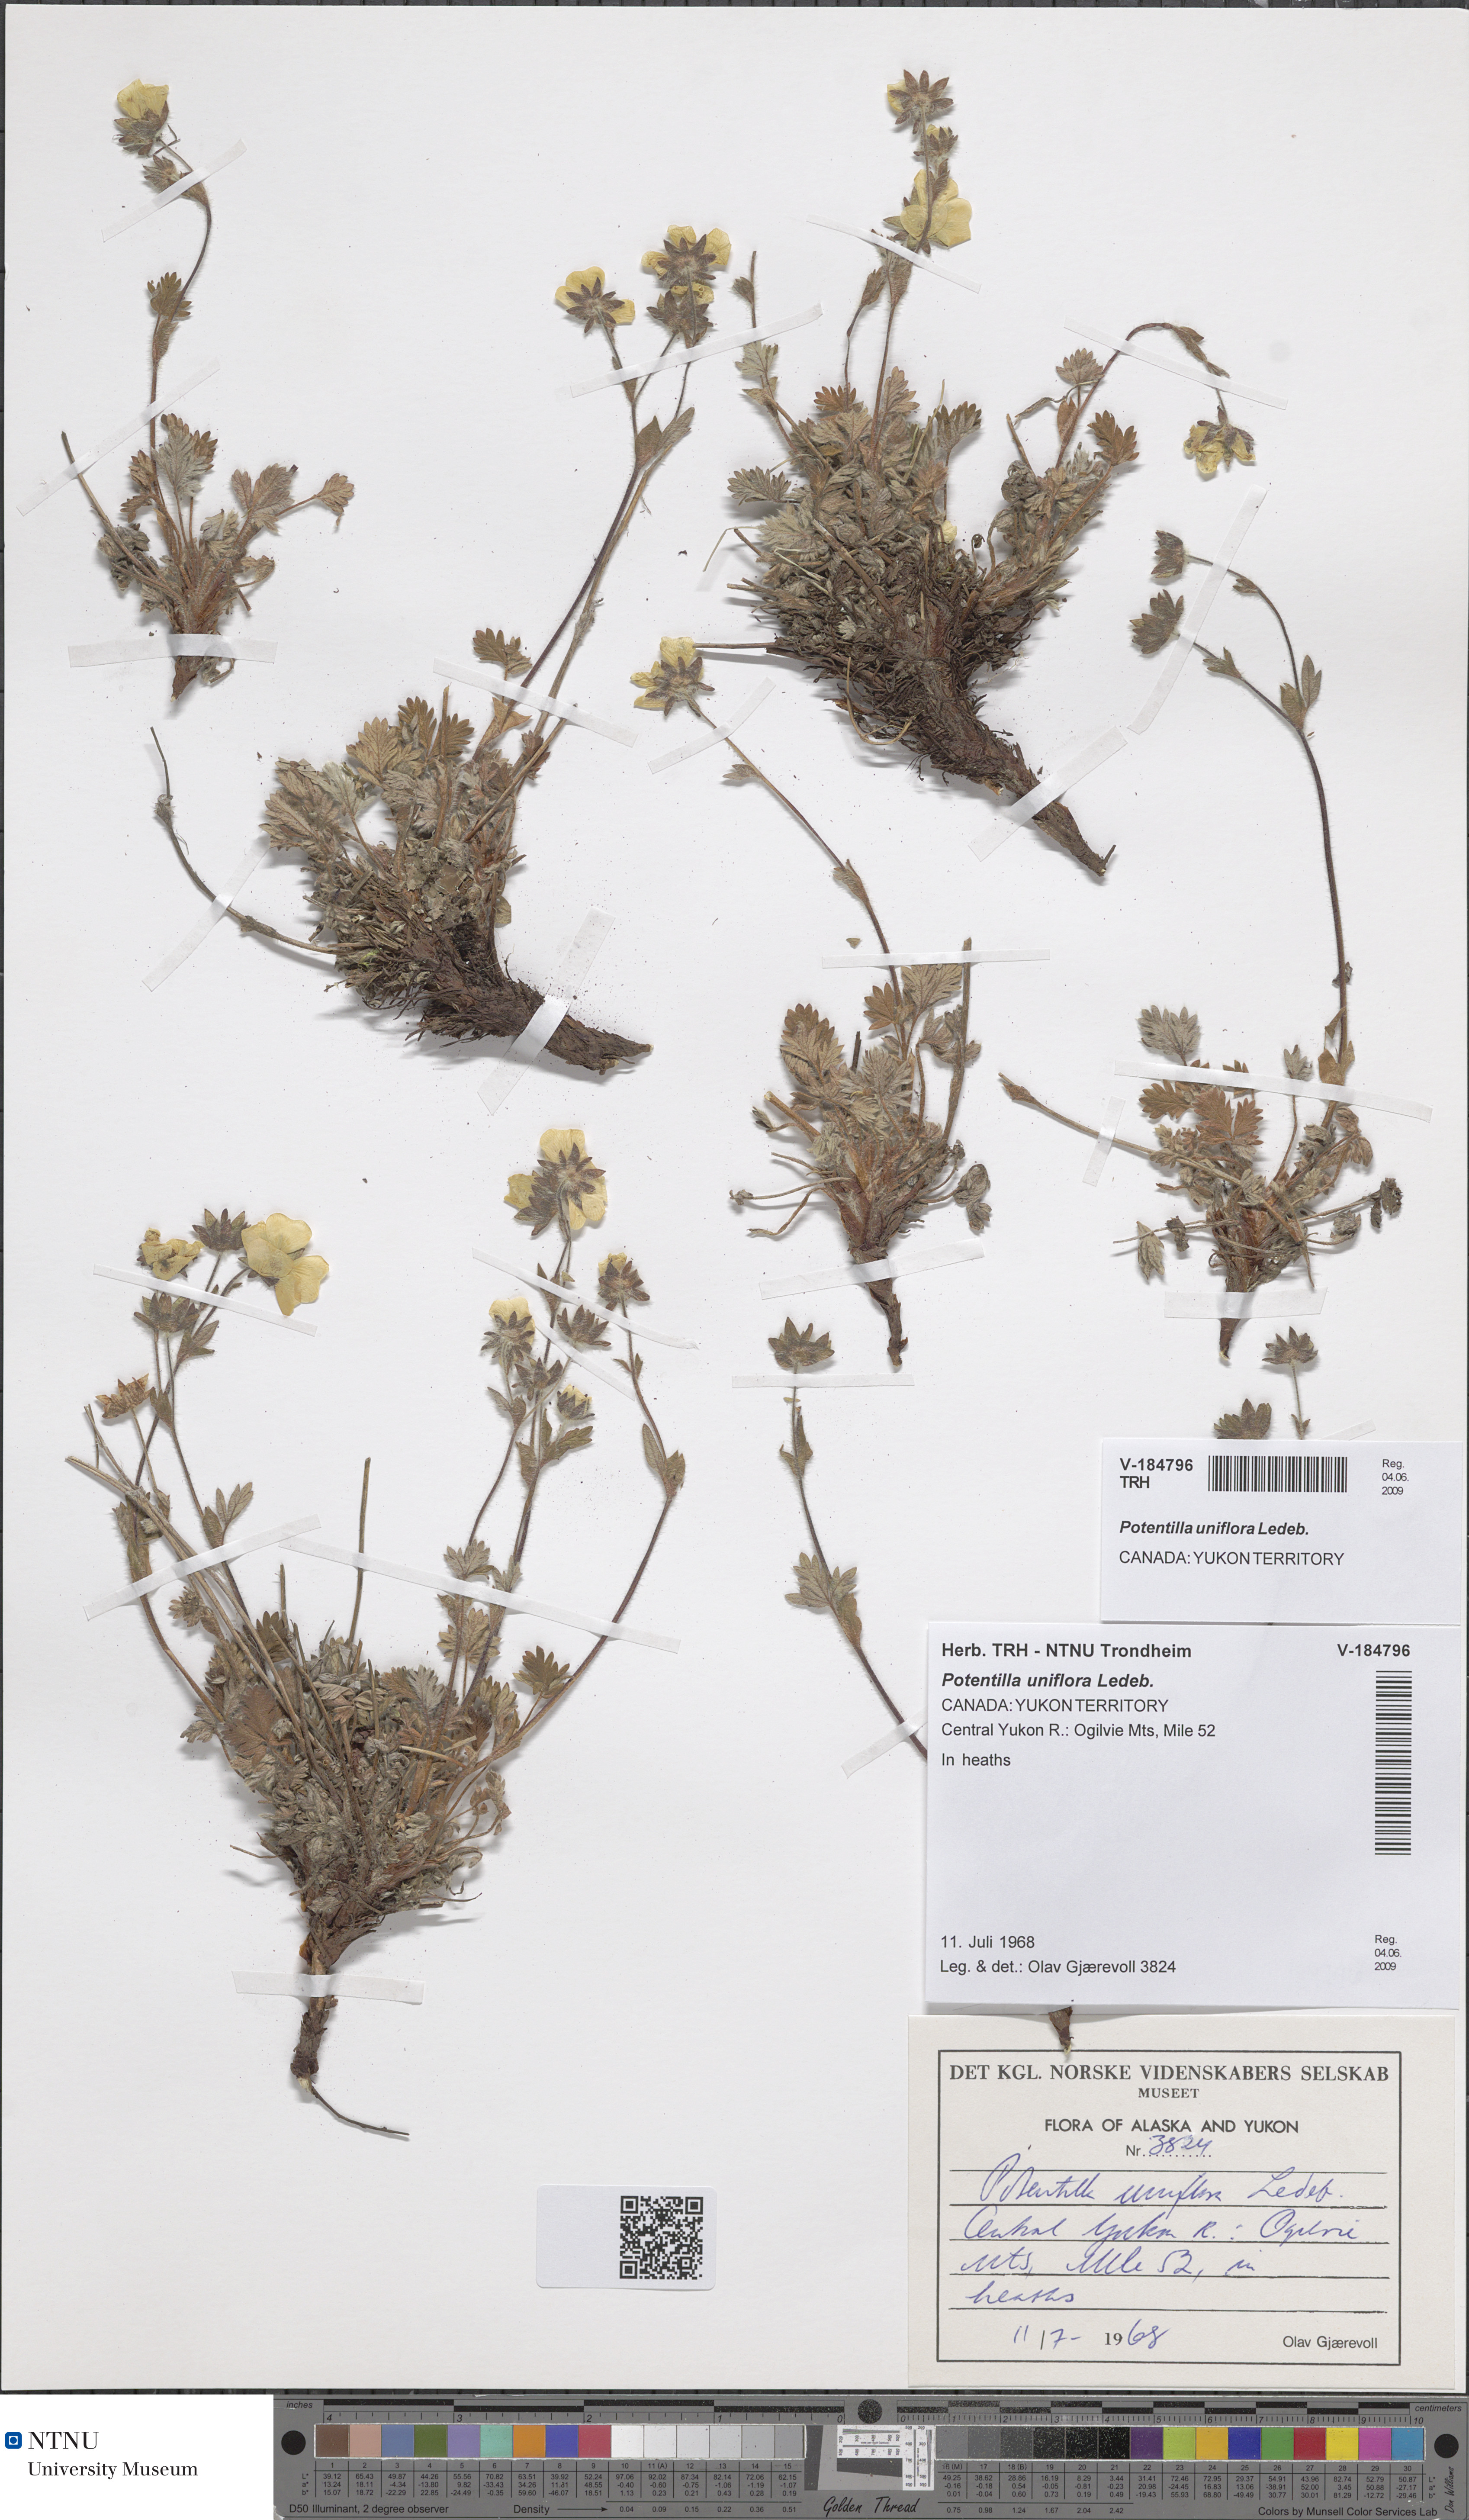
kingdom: Plantae
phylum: Tracheophyta
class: Magnoliopsida
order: Rosales
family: Rosaceae
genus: Potentilla
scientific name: Potentilla uniflora
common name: One-flowered cinquefoil
